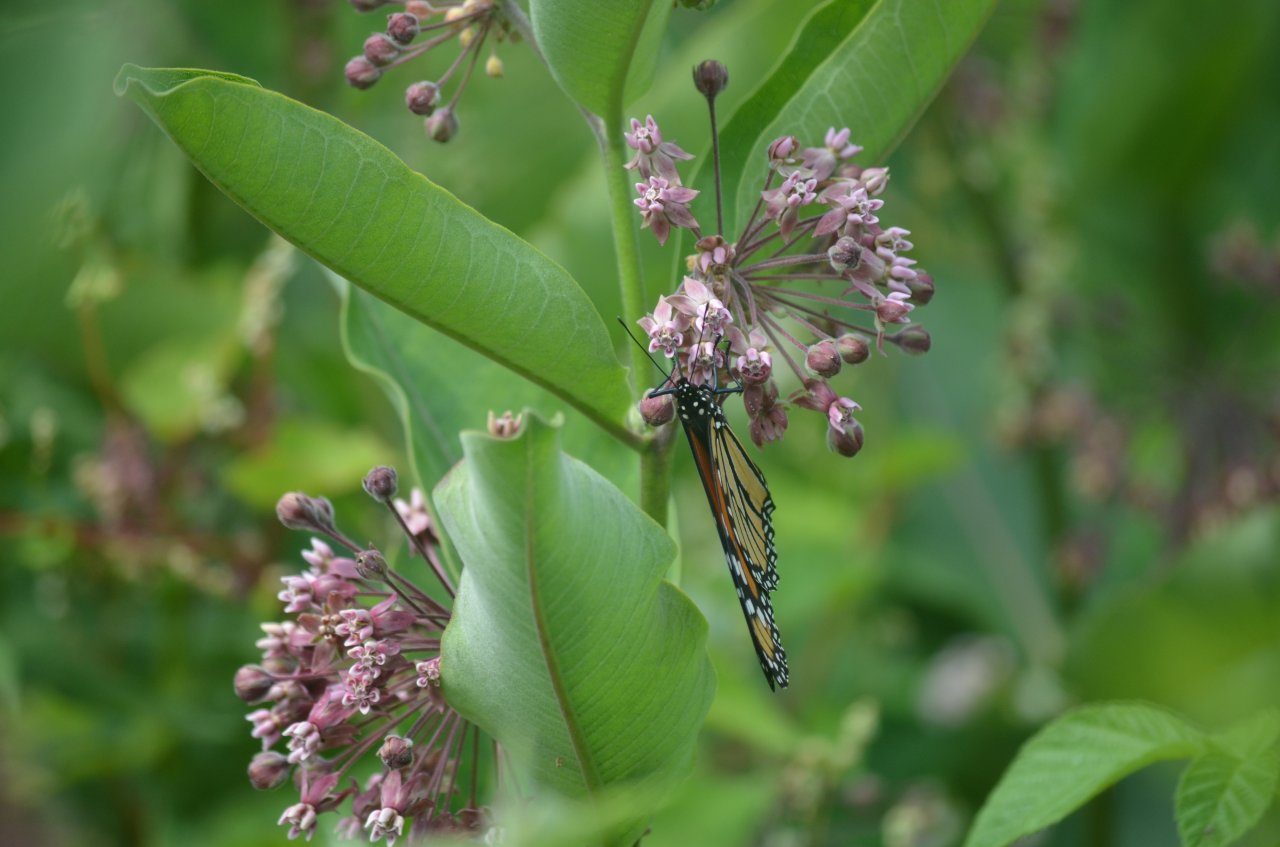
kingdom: Animalia
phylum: Arthropoda
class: Insecta
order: Lepidoptera
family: Nymphalidae
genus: Danaus
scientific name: Danaus plexippus
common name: Monarch
